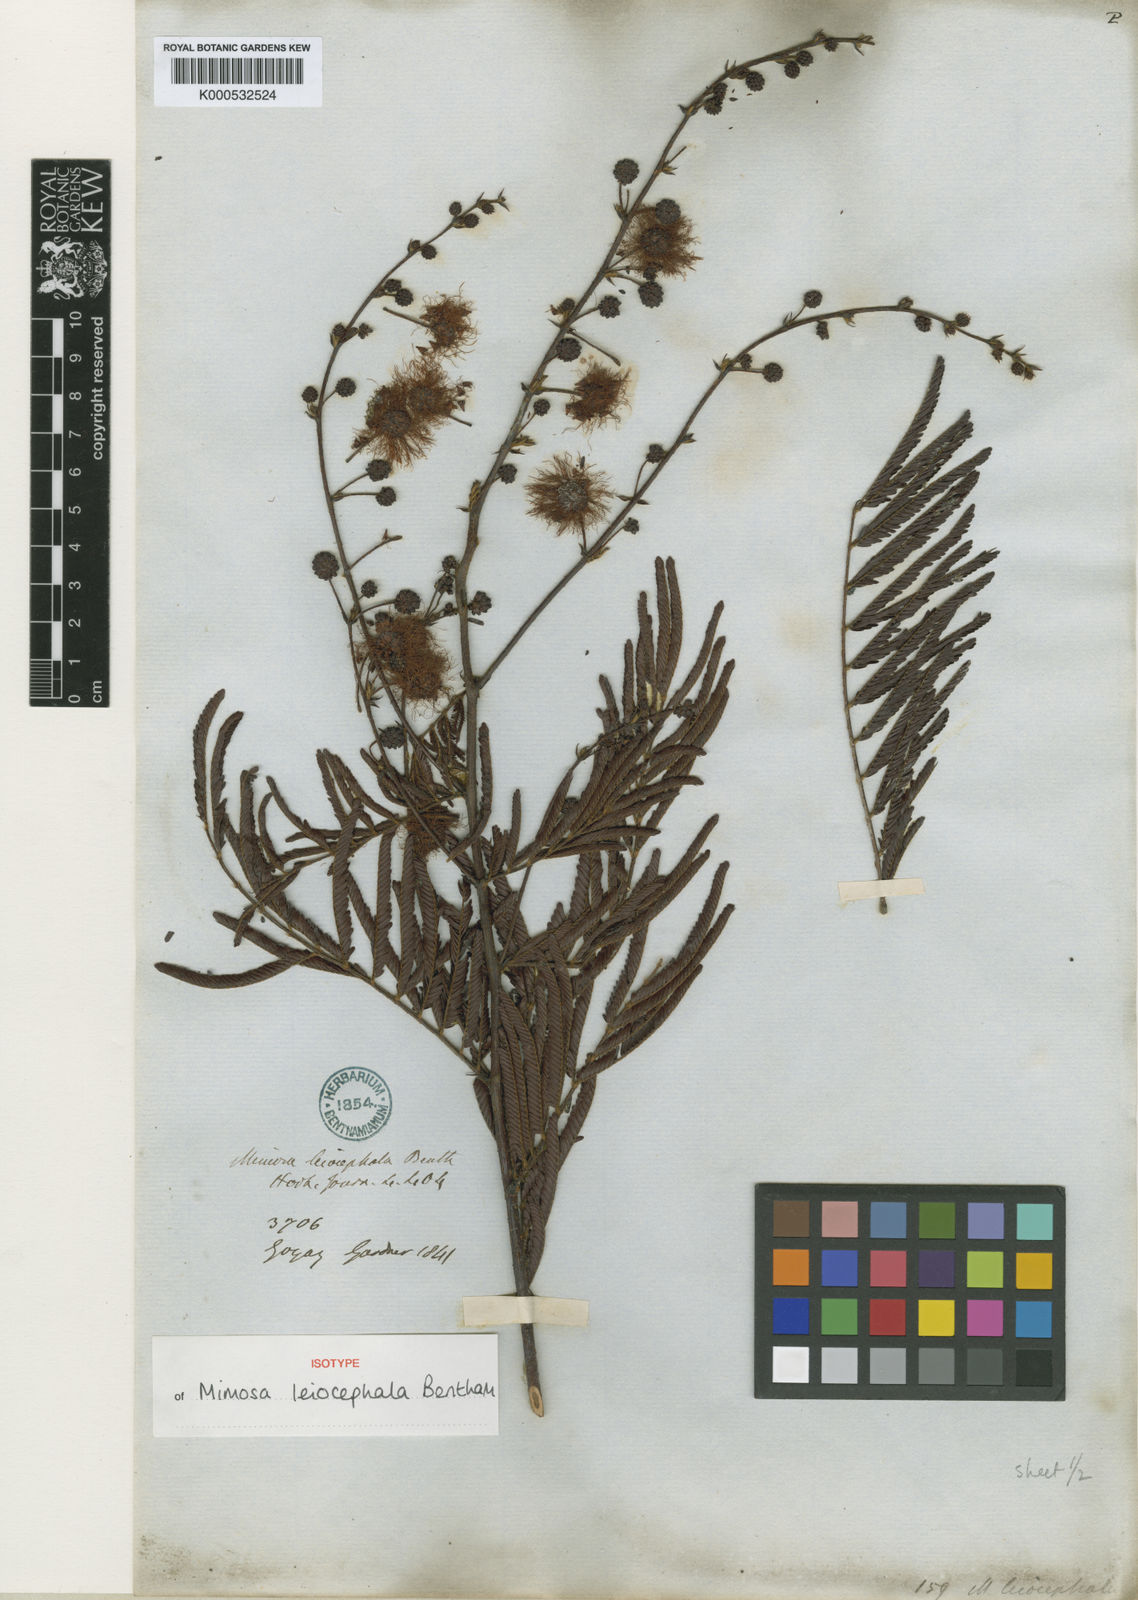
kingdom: Plantae
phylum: Tracheophyta
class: Magnoliopsida
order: Fabales
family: Fabaceae
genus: Mimosa
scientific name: Mimosa leiocephala
